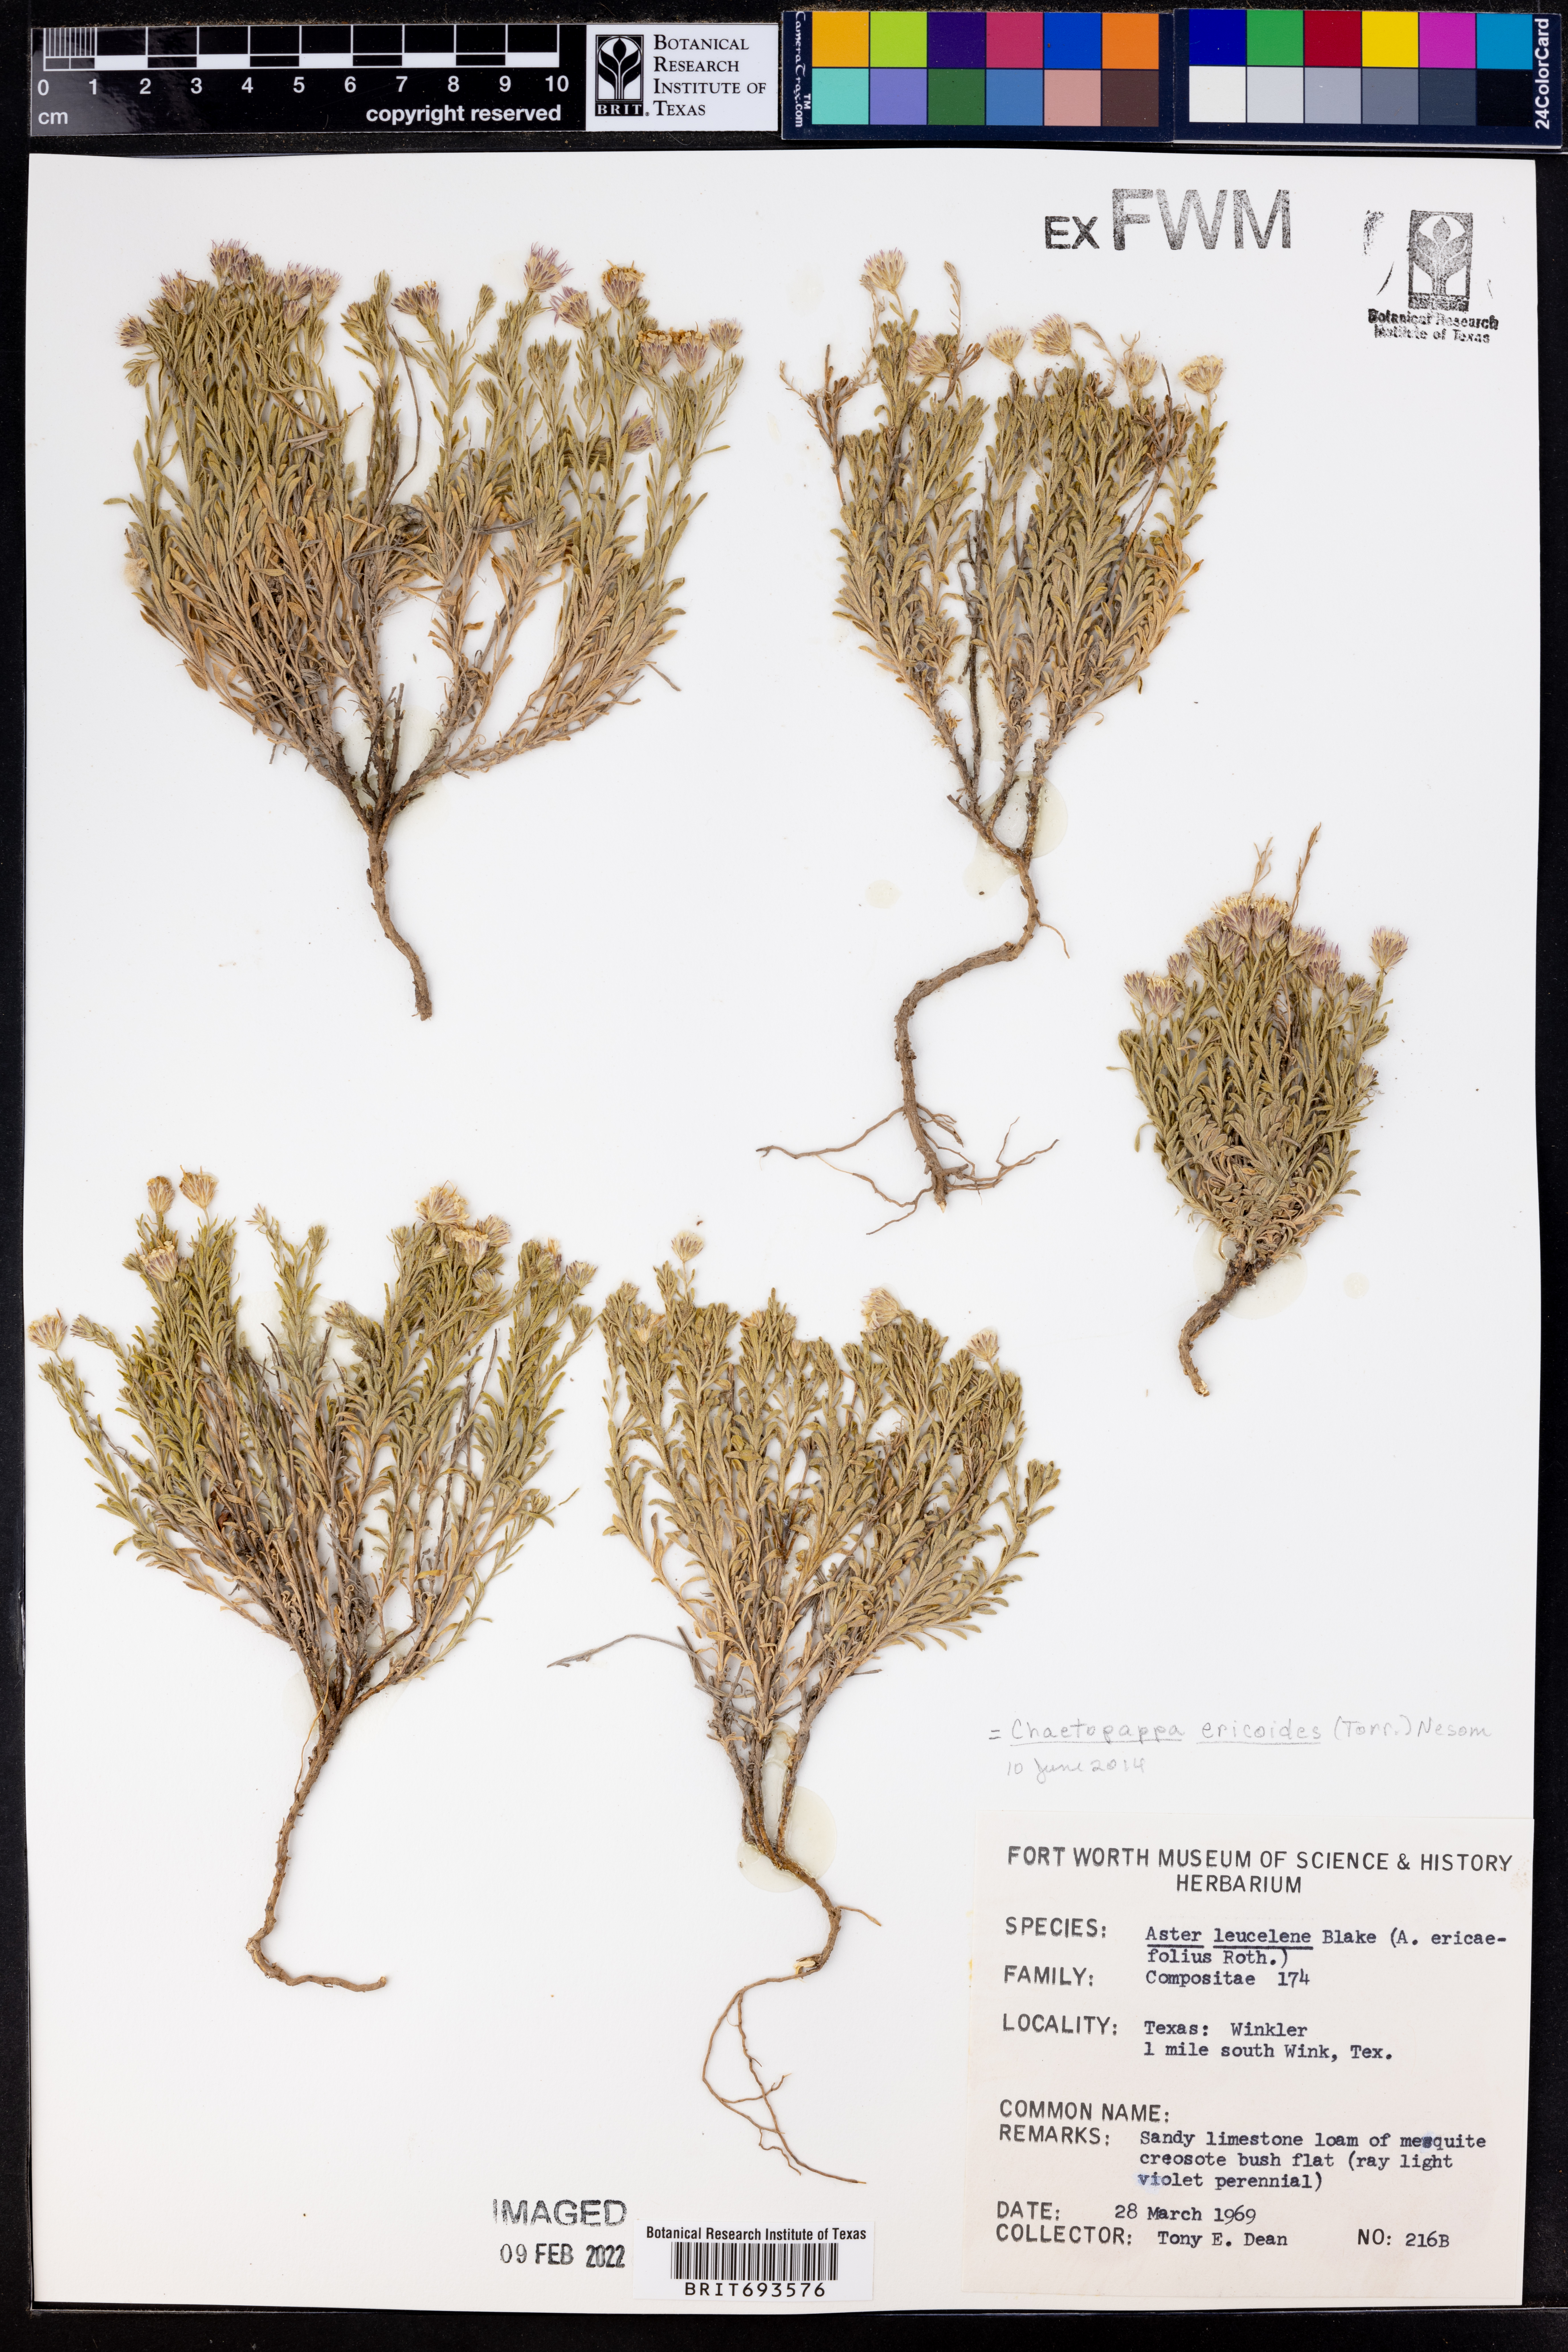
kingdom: Plantae
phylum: Tracheophyta
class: Magnoliopsida
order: Asterales
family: Asteraceae
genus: Chaetopappa
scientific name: Chaetopappa ericoides
